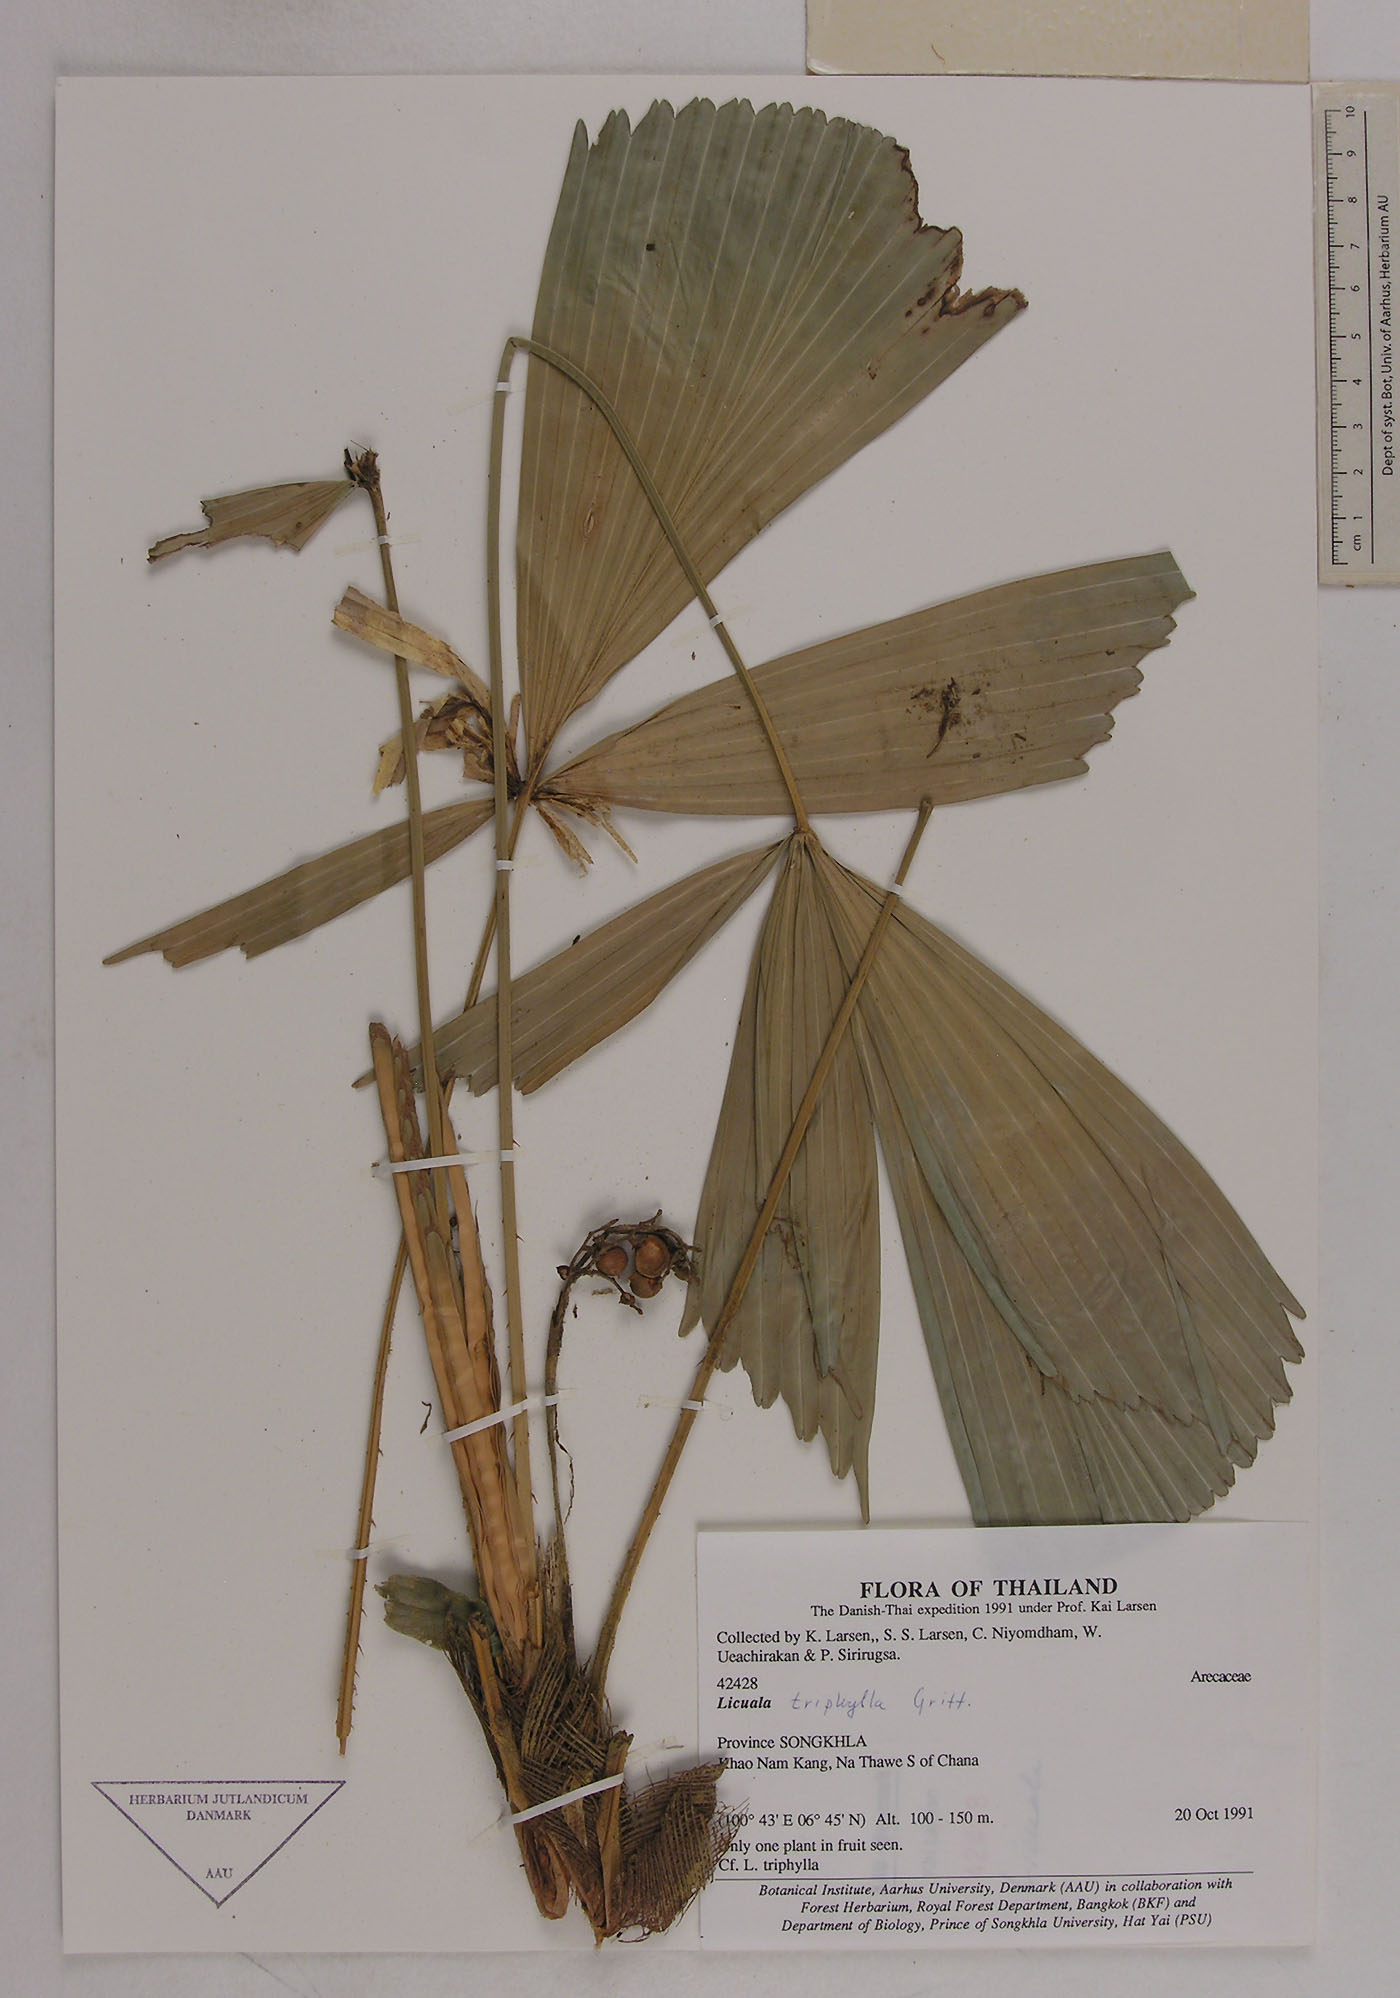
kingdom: Plantae
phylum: Tracheophyta
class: Liliopsida
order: Arecales
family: Arecaceae
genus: Licuala
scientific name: Licuala triphylla
